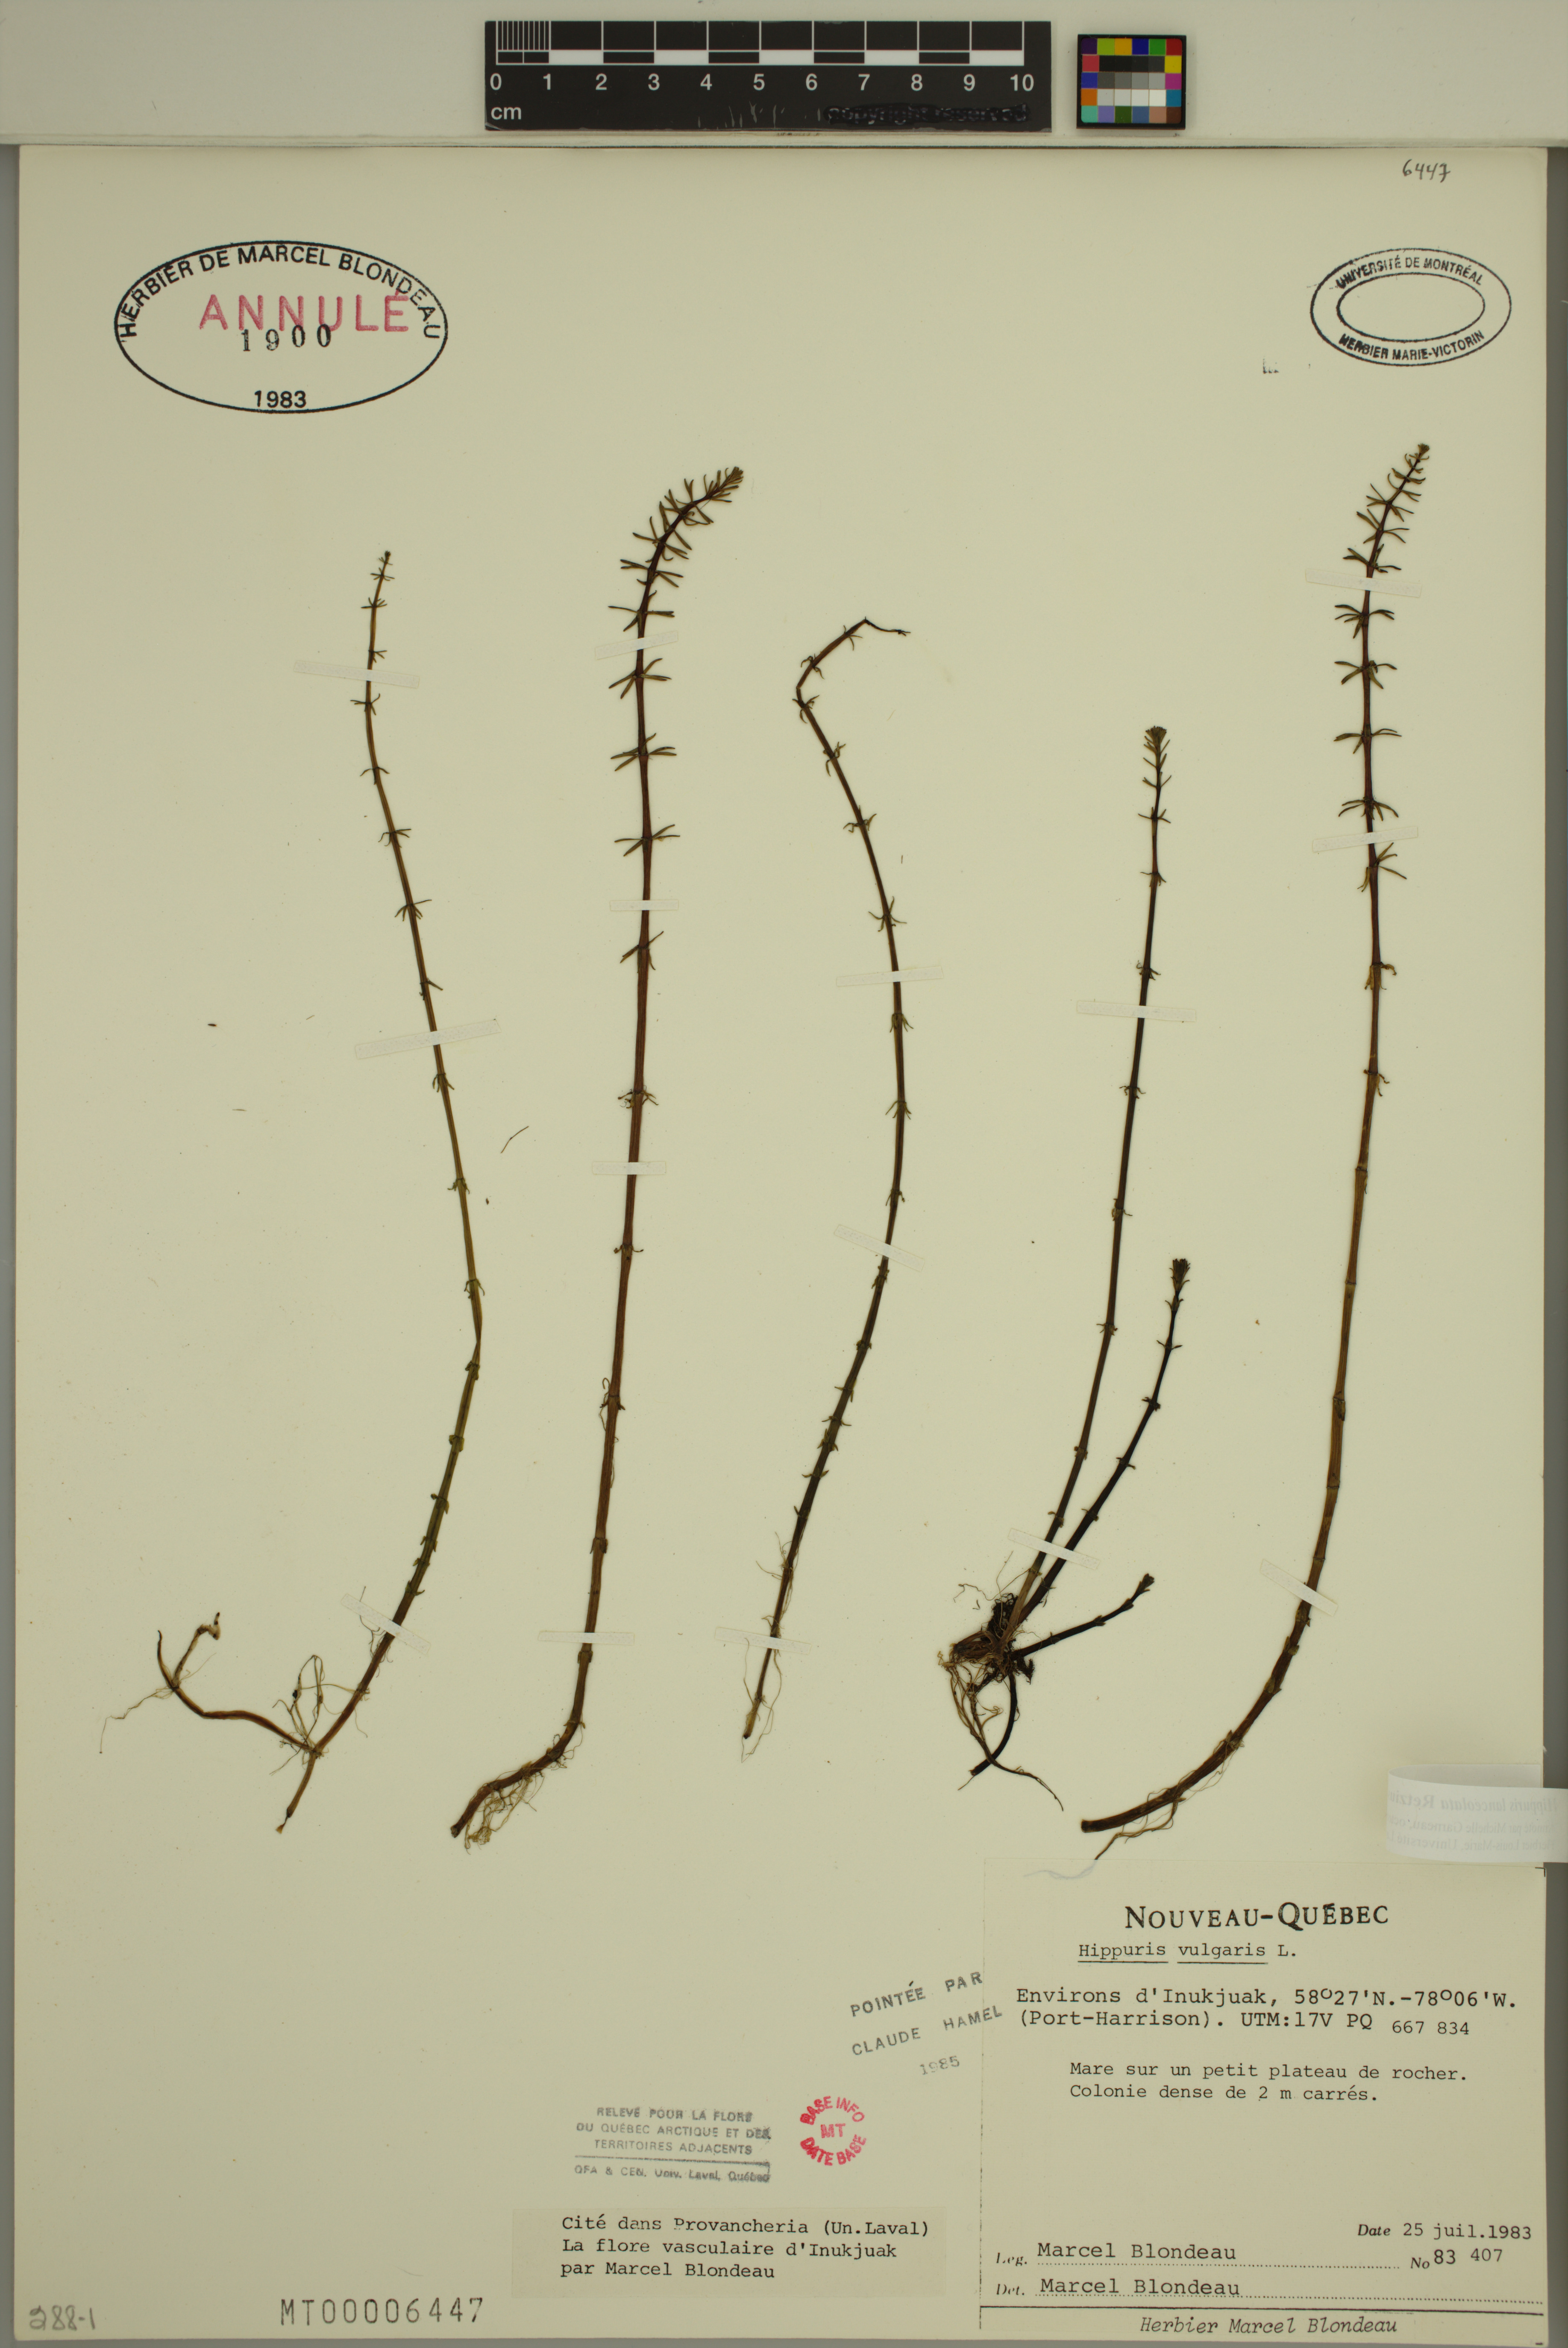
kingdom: Plantae
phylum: Tracheophyta
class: Magnoliopsida
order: Lamiales
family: Plantaginaceae
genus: Hippuris
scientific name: Hippuris lanceolata
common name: Lance-leaved mare's-tail
